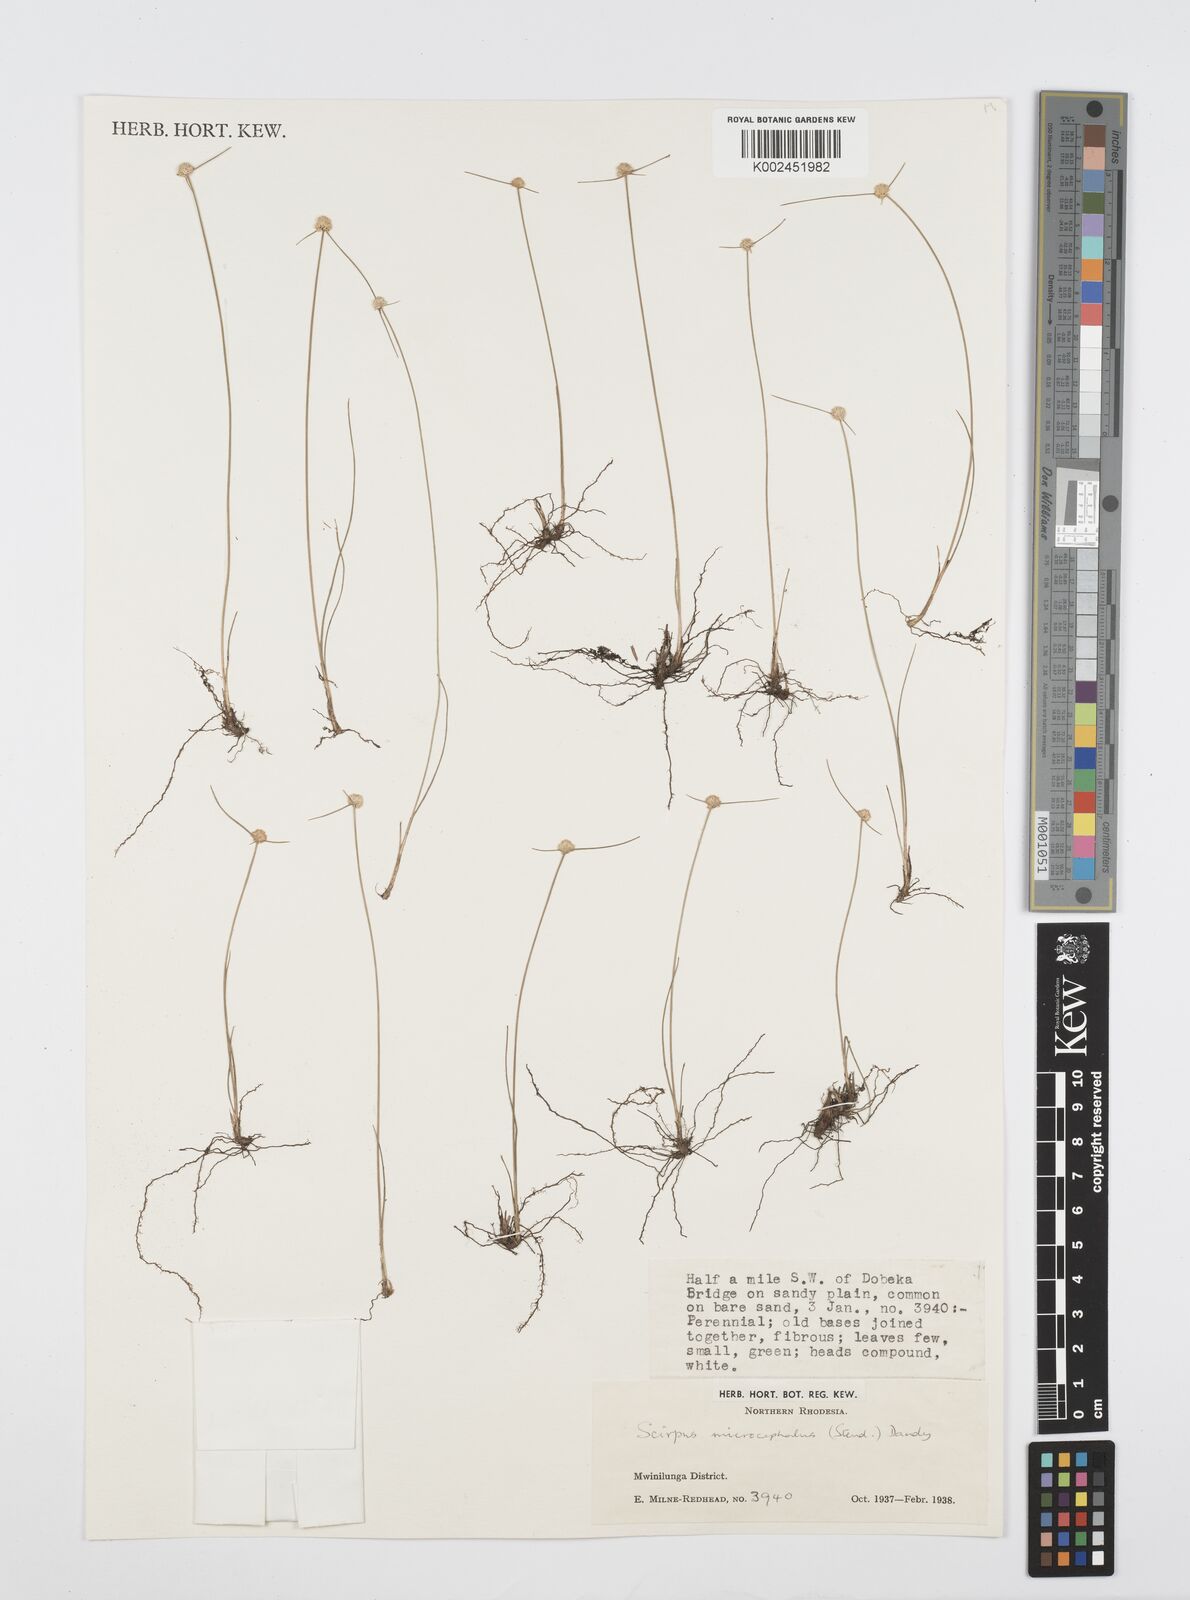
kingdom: Plantae
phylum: Tracheophyta
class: Liliopsida
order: Poales
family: Cyperaceae
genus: Cyperus
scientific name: Cyperus microcephalus
